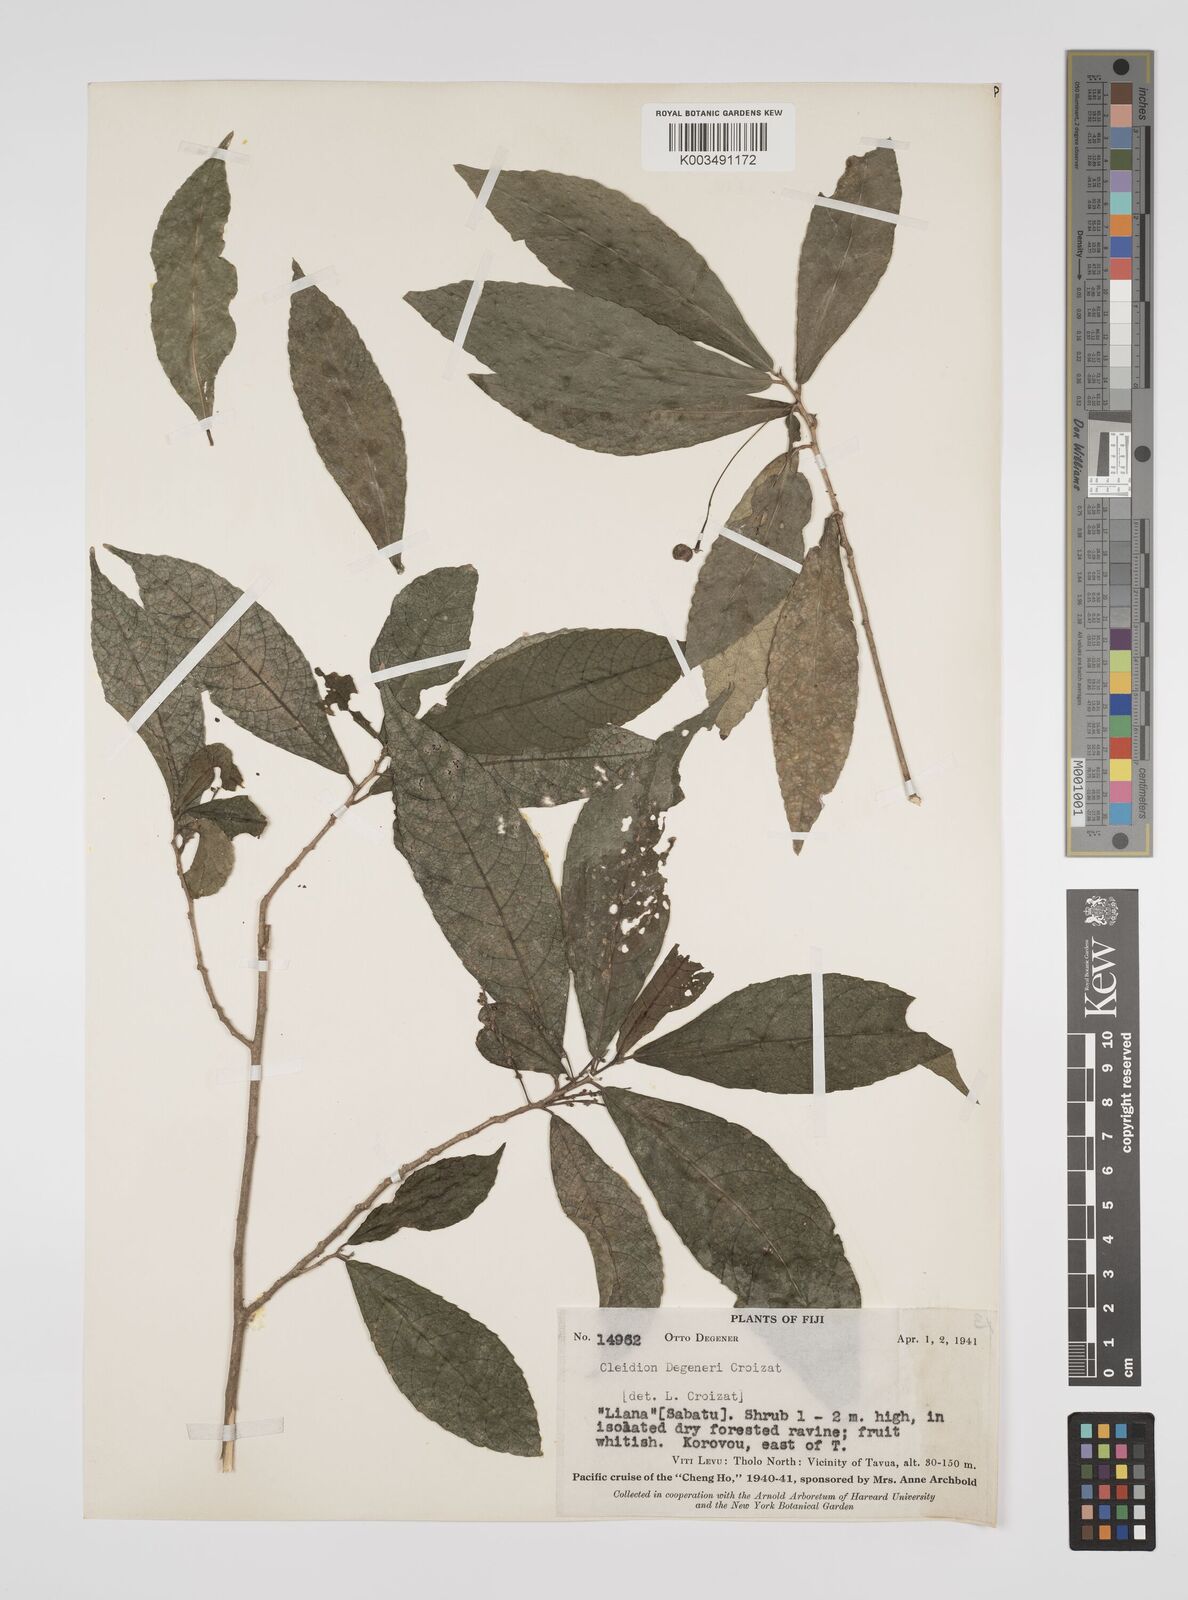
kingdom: Plantae
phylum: Tracheophyta
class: Magnoliopsida
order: Malpighiales
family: Euphorbiaceae
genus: Cleidion
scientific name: Cleidion leptostachyum
